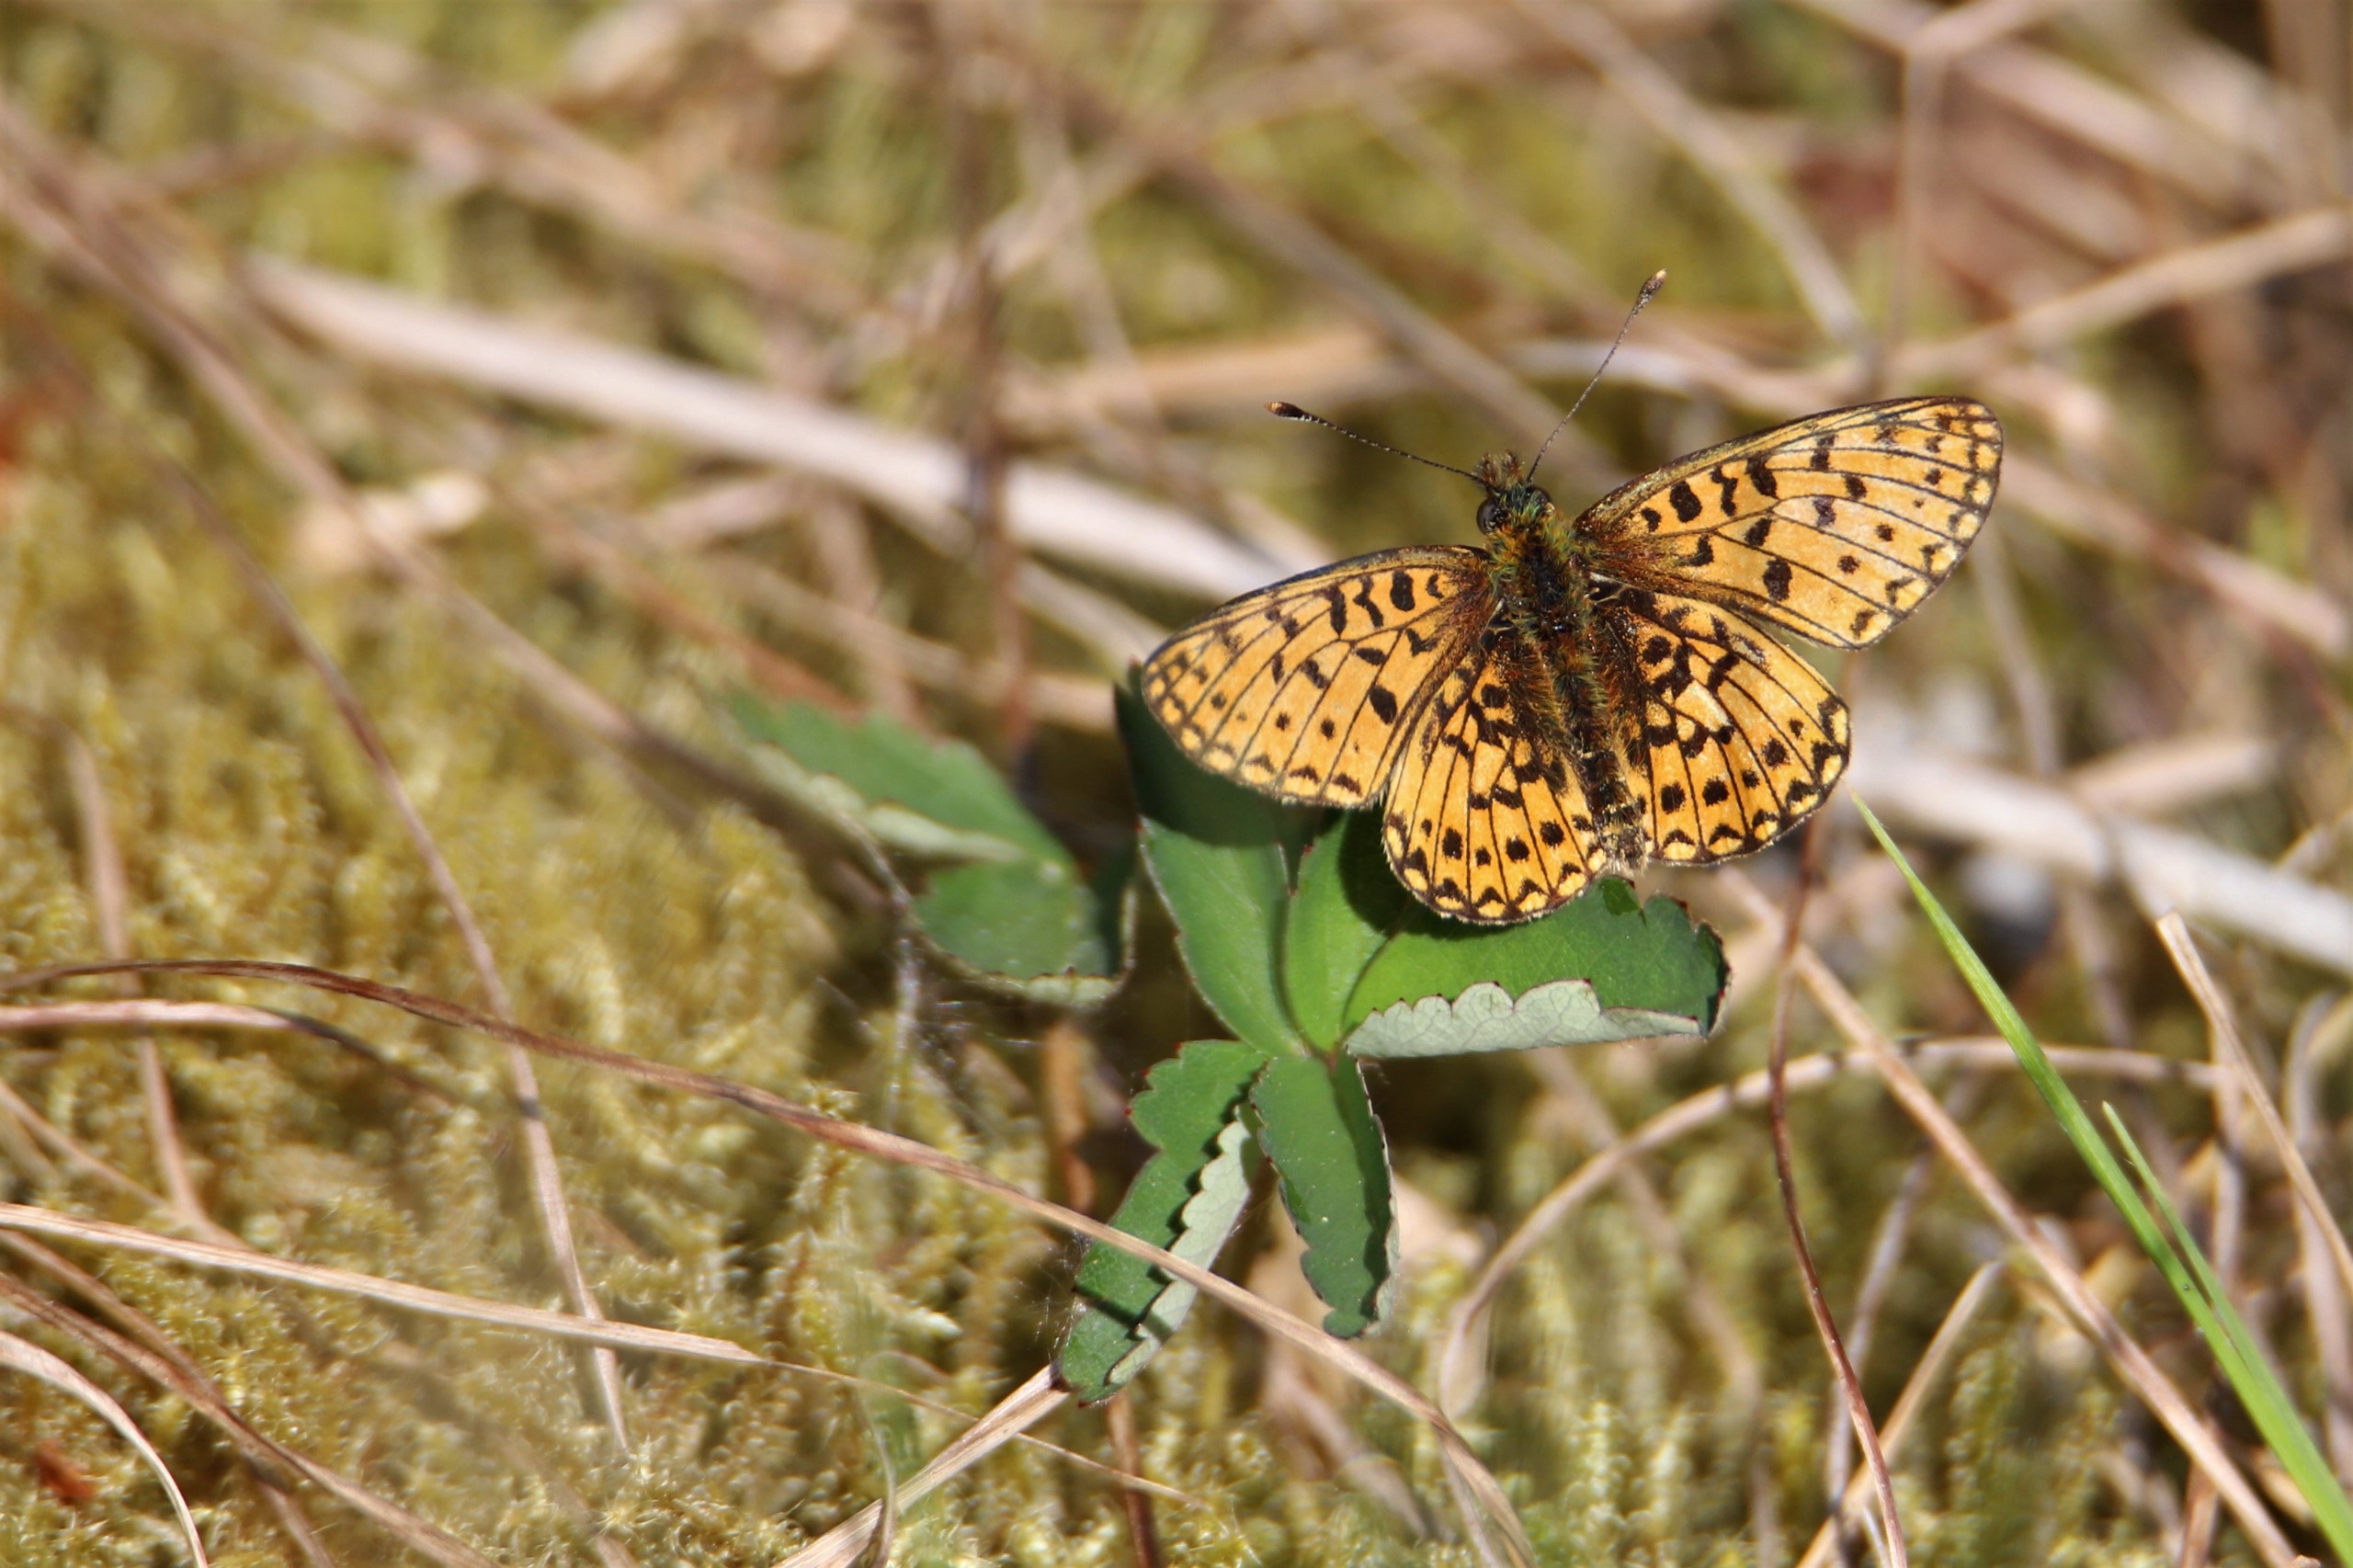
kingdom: Animalia
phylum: Arthropoda
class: Insecta
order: Lepidoptera
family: Nymphalidae
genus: Boloria
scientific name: Boloria selene
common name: Brunlig perlemorsommerfugl
